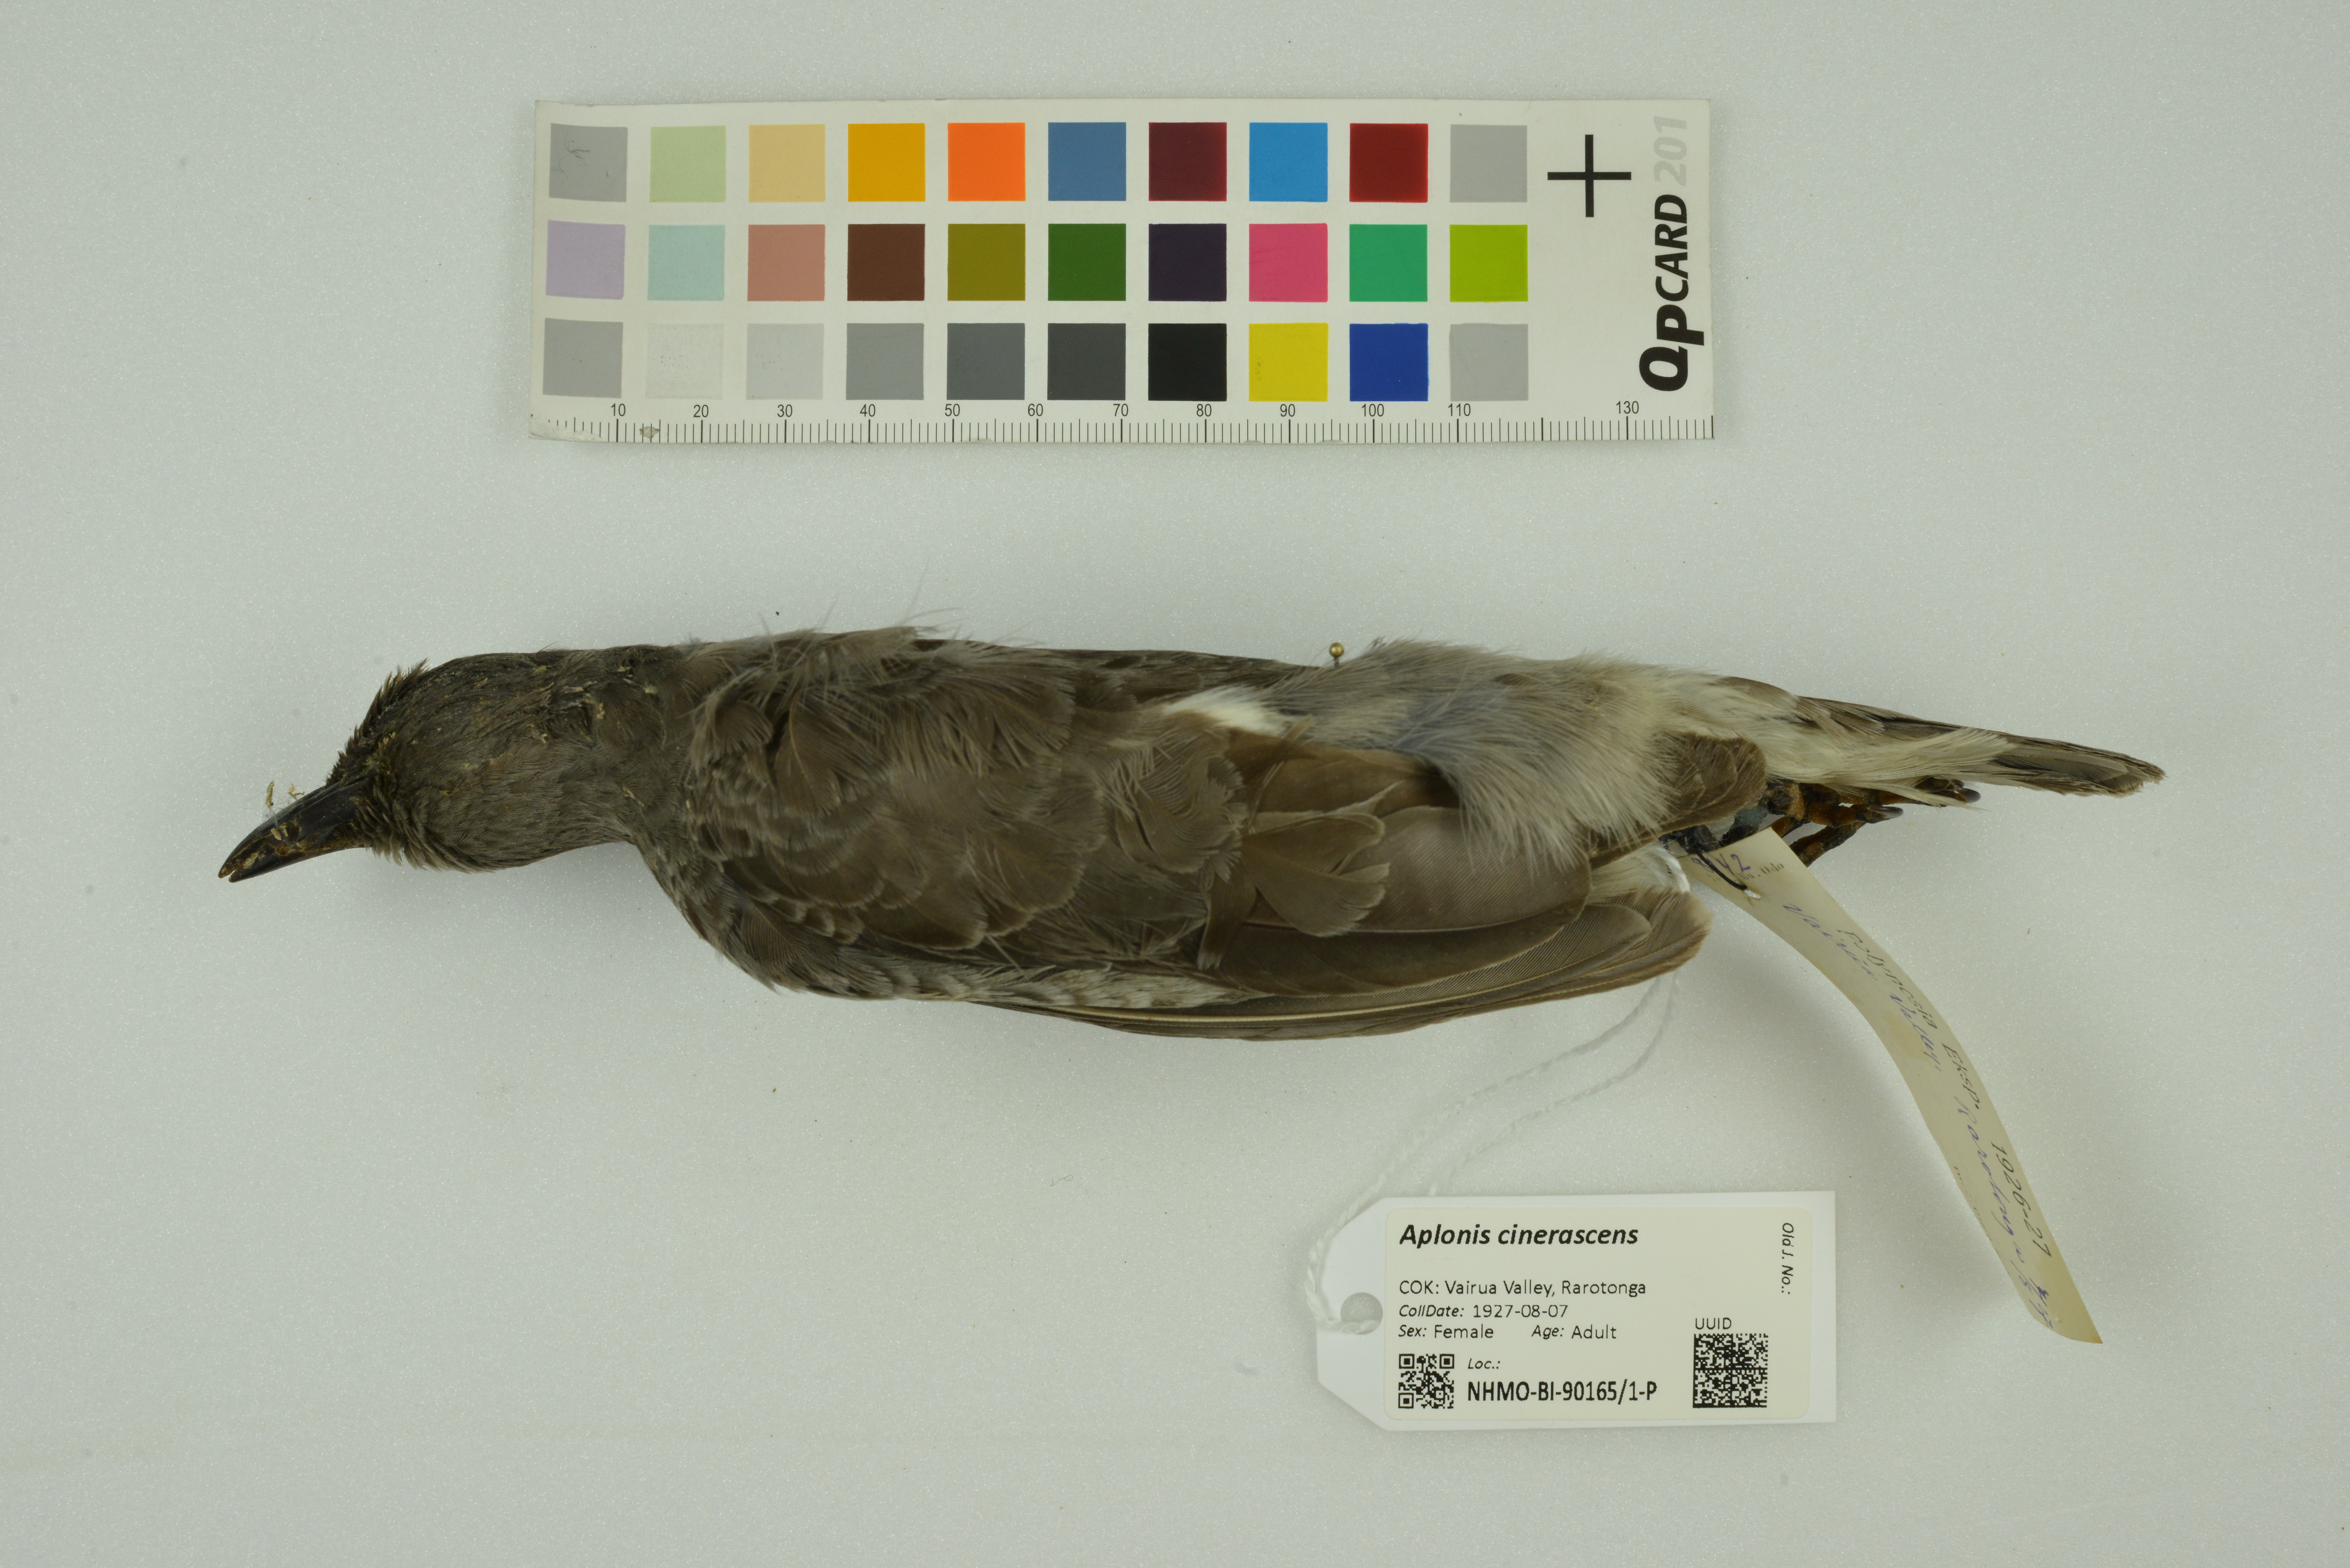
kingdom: Animalia
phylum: Chordata
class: Aves
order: Passeriformes
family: Sturnidae
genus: Aplonis
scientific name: Aplonis cinerascens
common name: Rarotonga starling
